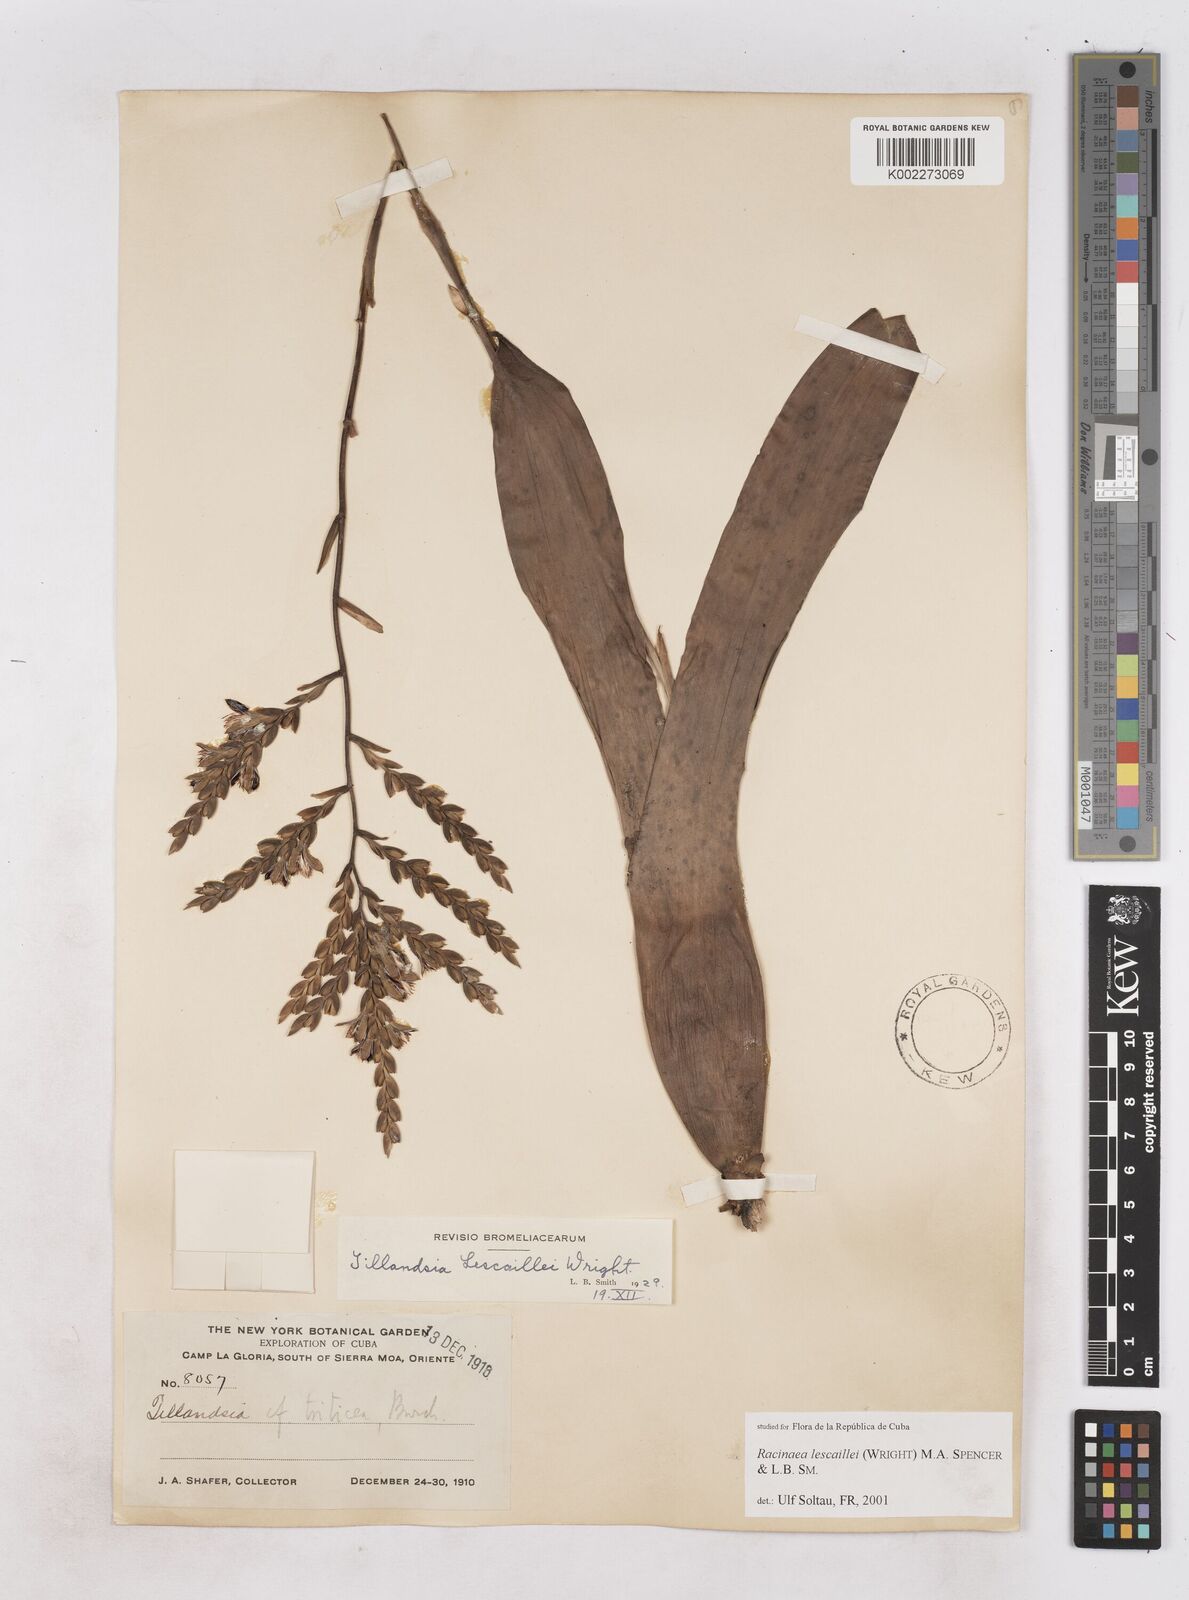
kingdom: Plantae
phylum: Tracheophyta
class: Liliopsida
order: Poales
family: Bromeliaceae
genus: Racinaea
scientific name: Racinaea lescaillei
